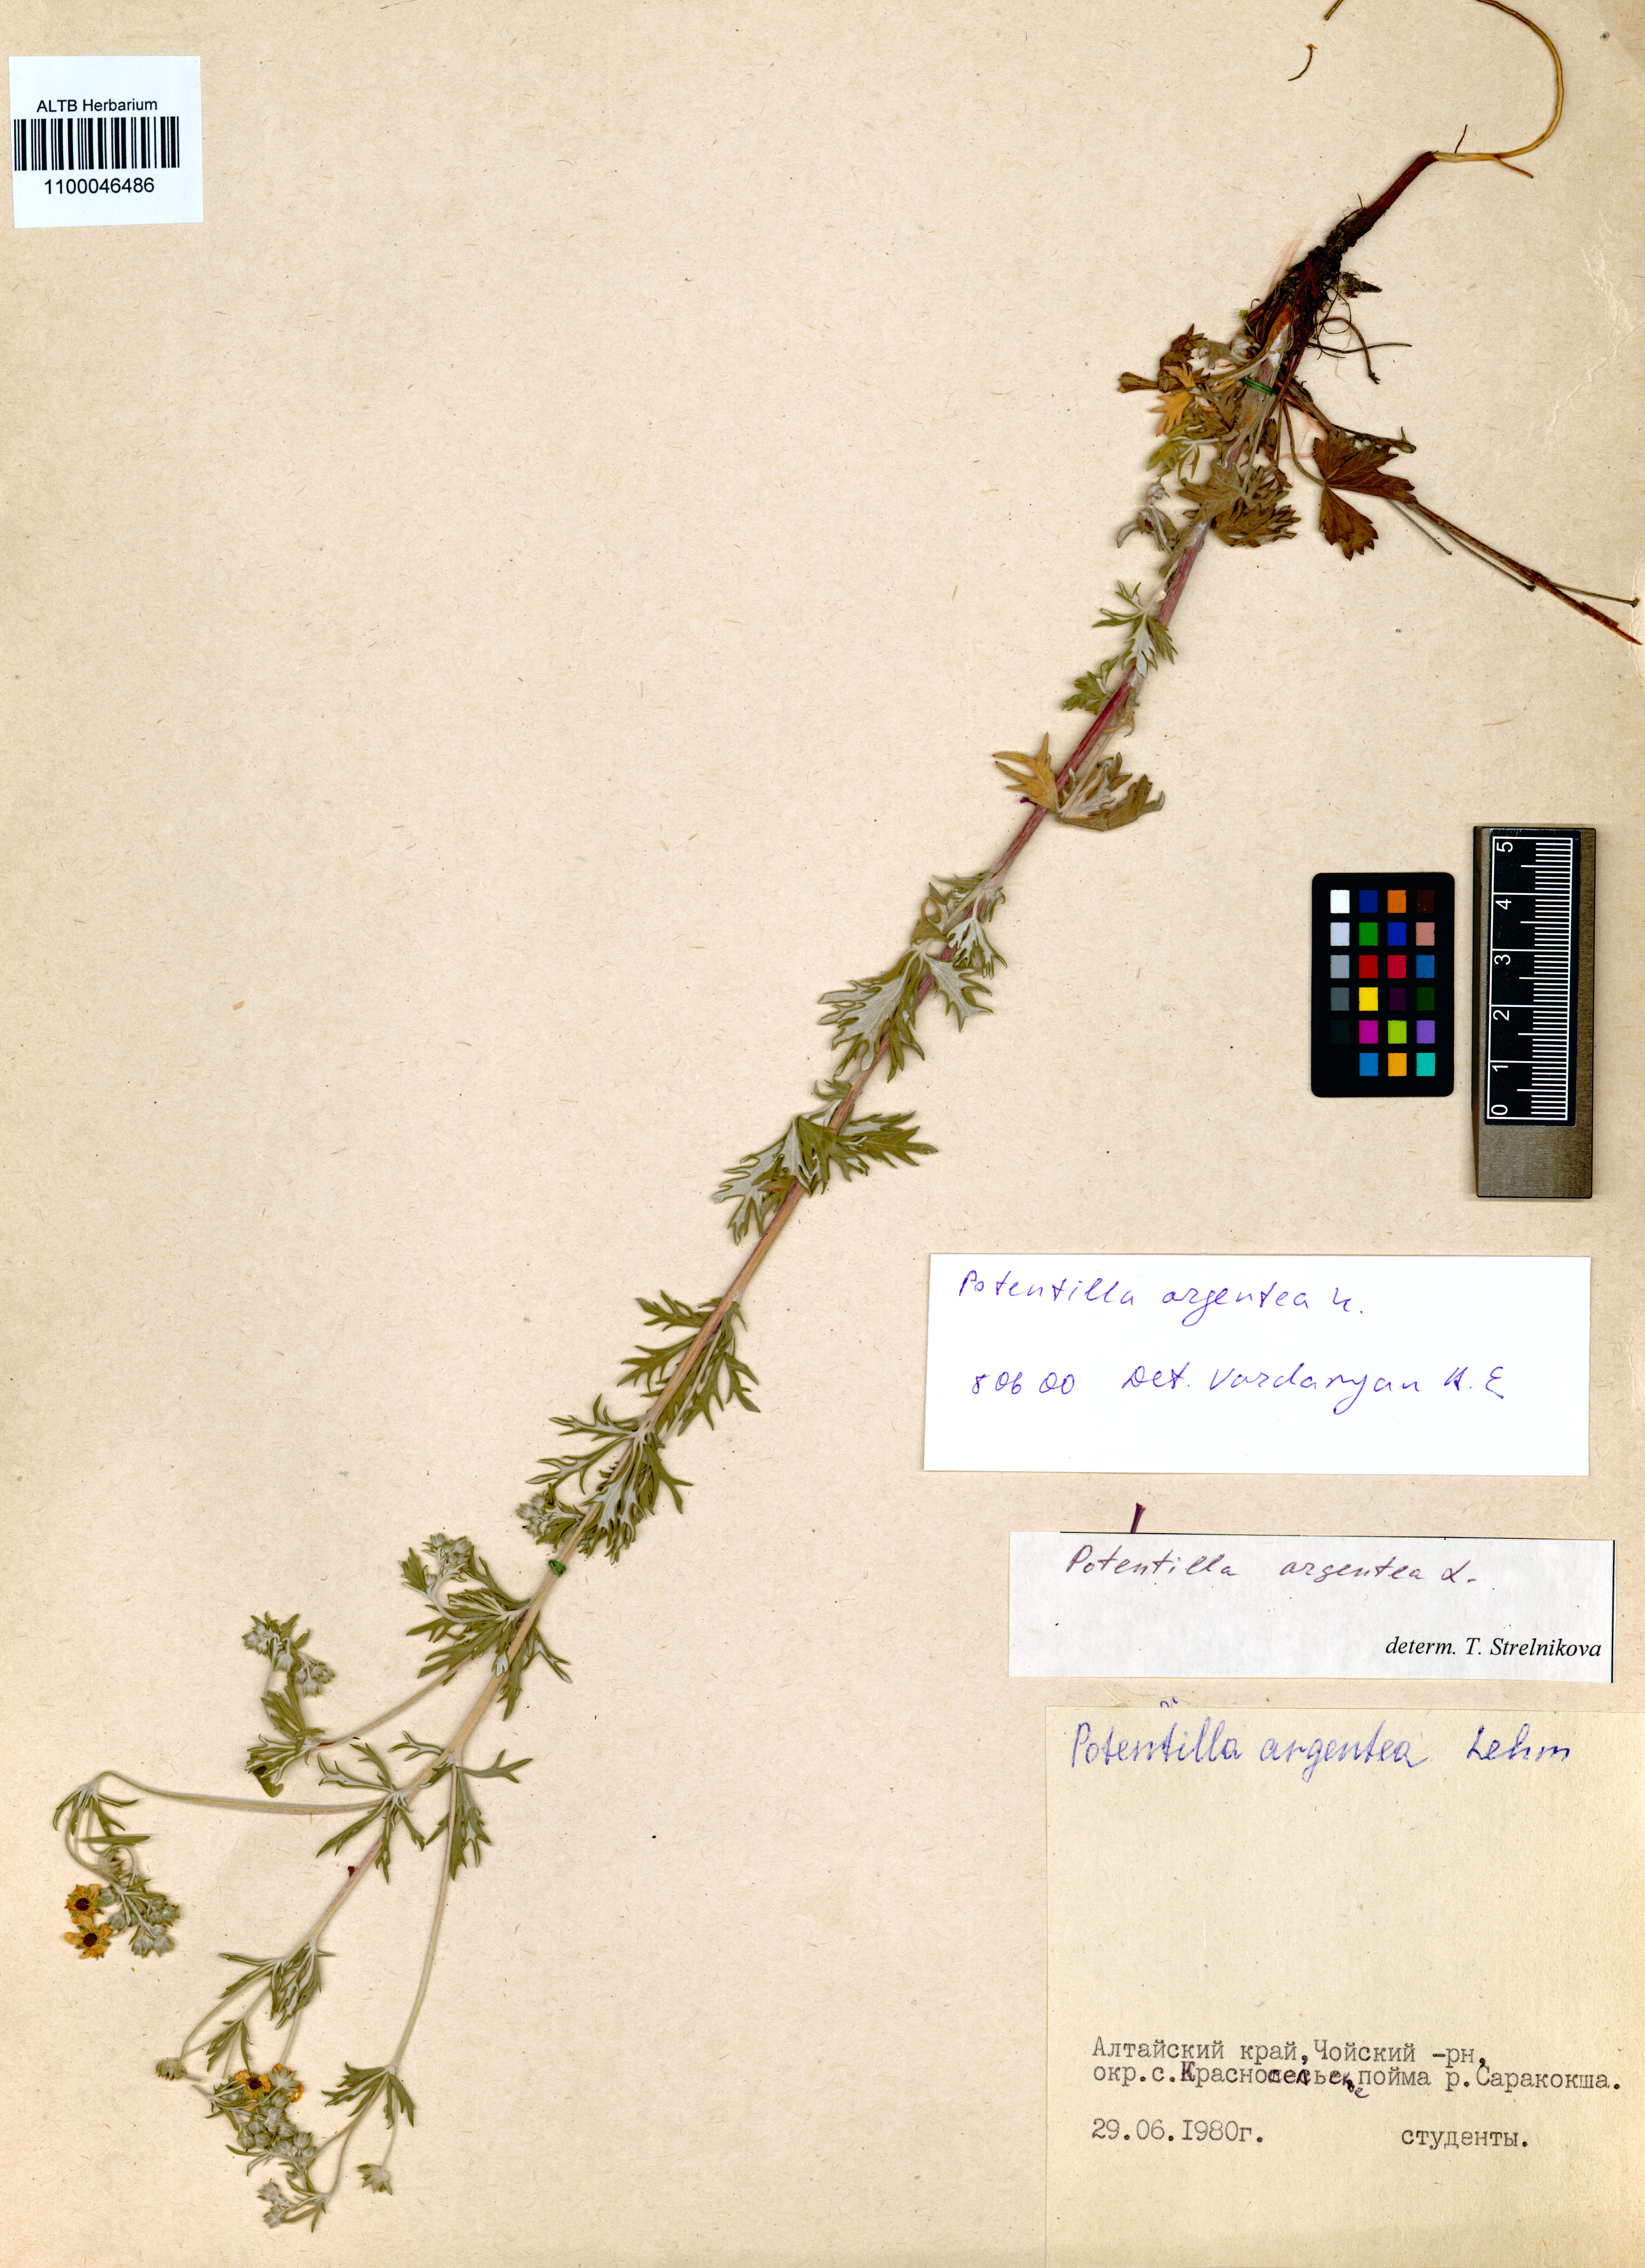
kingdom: Plantae
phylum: Tracheophyta
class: Magnoliopsida
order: Rosales
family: Rosaceae
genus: Potentilla
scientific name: Potentilla argentea
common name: Hoary cinquefoil
